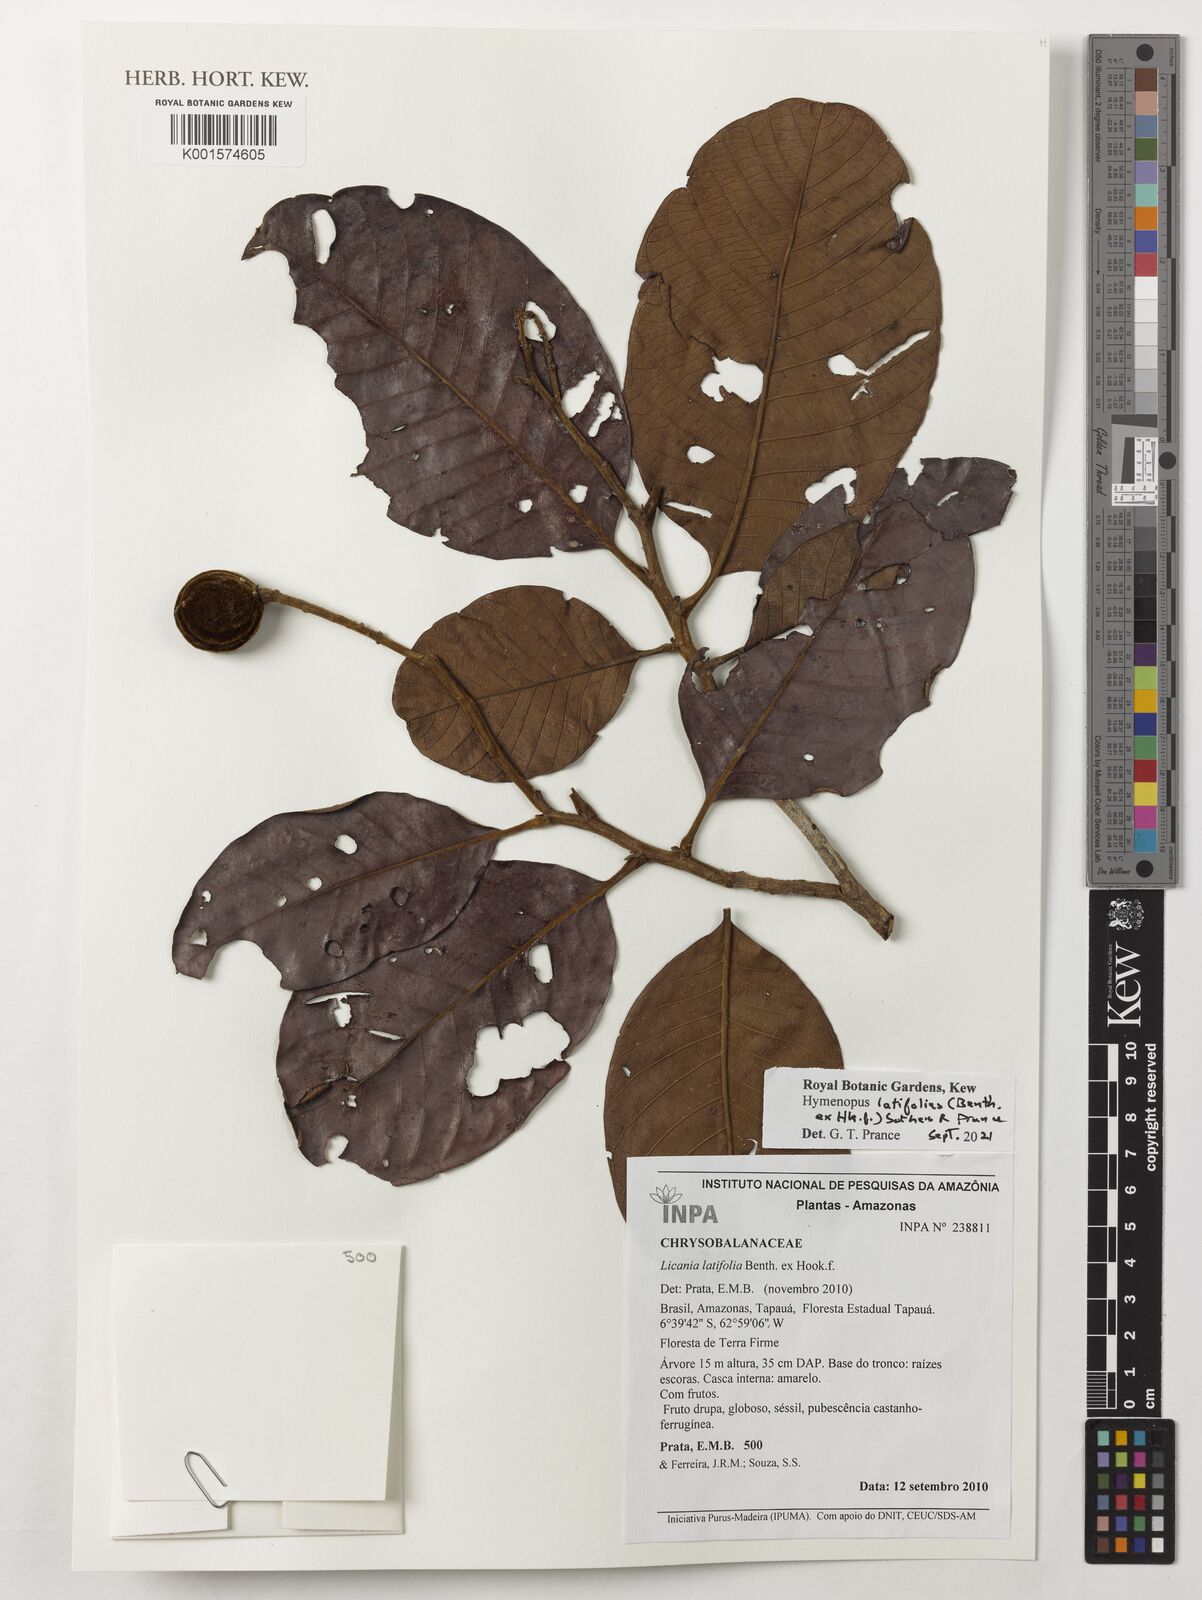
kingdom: Plantae
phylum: Tracheophyta
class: Magnoliopsida
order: Malpighiales
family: Chrysobalanaceae
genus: Hymenopus
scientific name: Hymenopus latifolius
